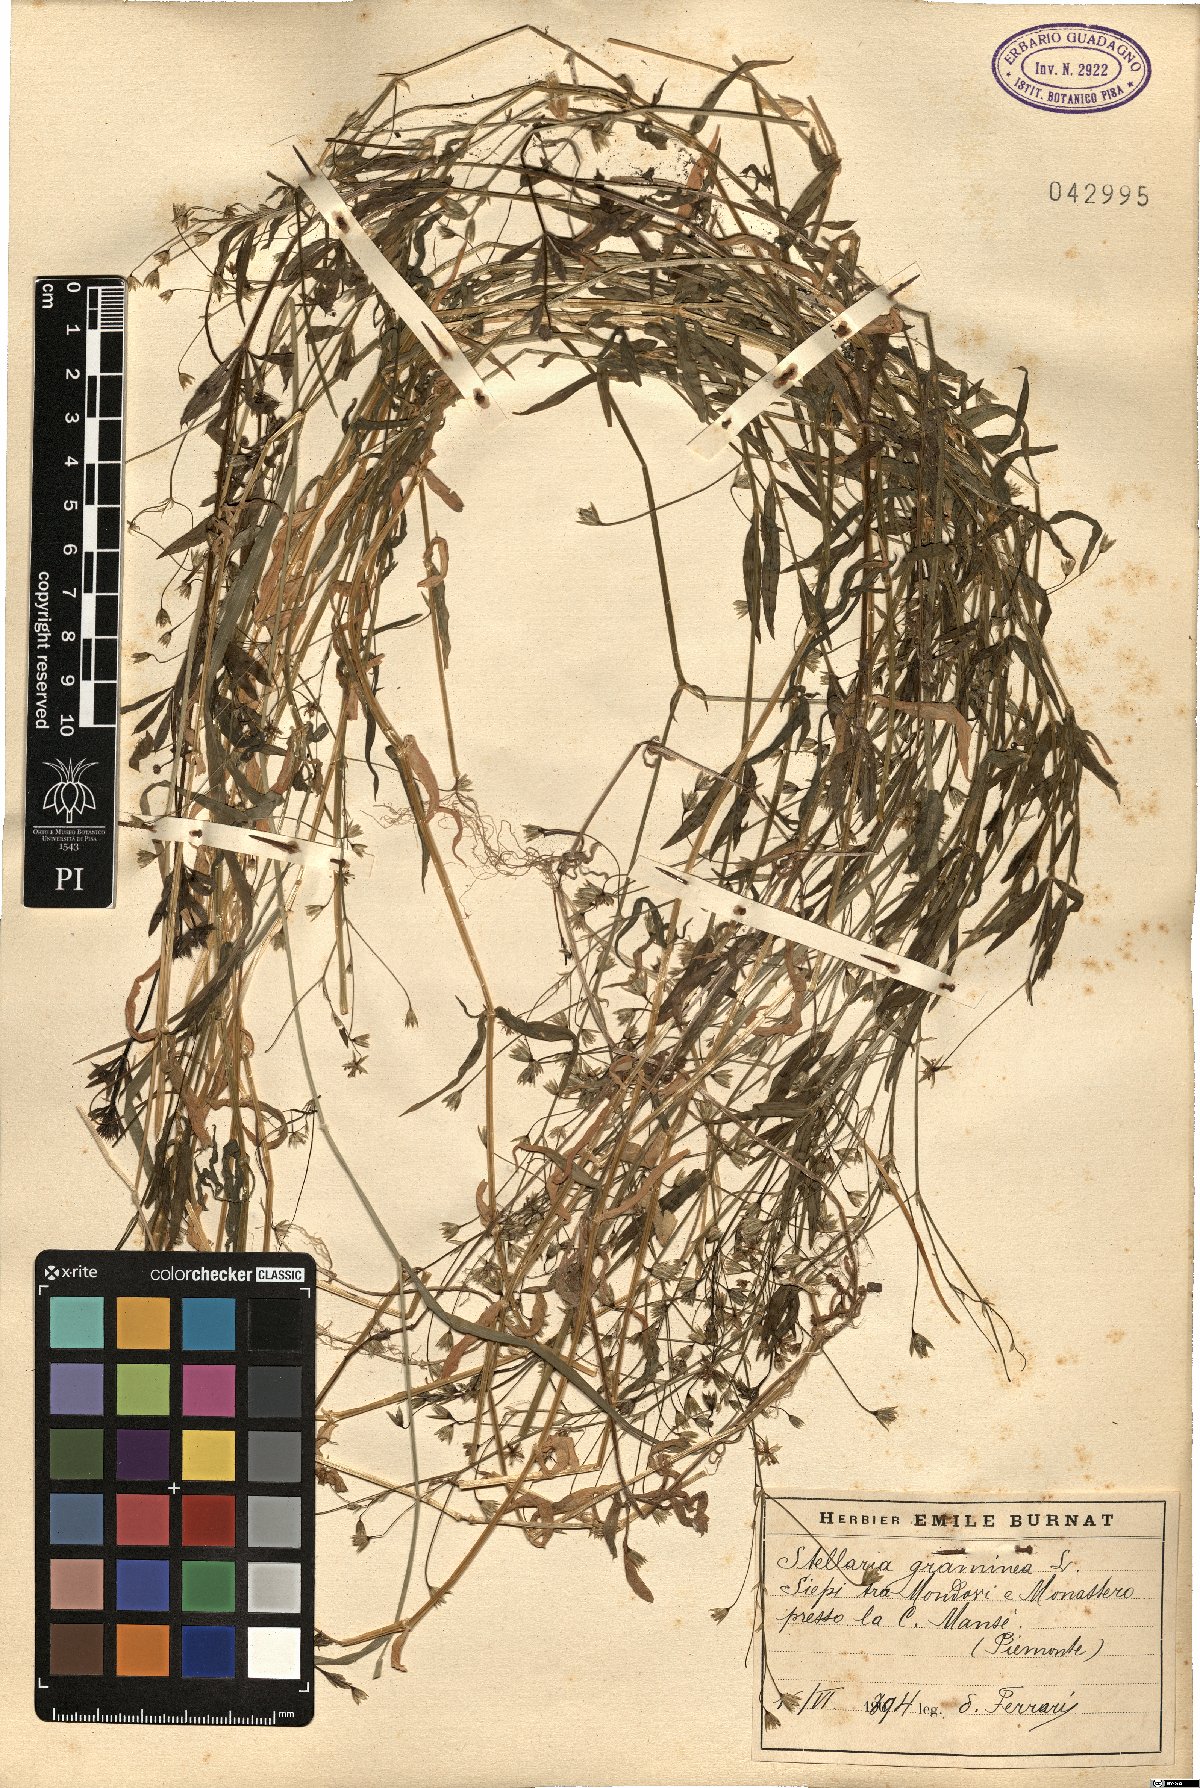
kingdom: Plantae
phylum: Tracheophyta
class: Magnoliopsida
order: Caryophyllales
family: Caryophyllaceae
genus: Stellaria
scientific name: Stellaria graminea
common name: Grass-like starwort
